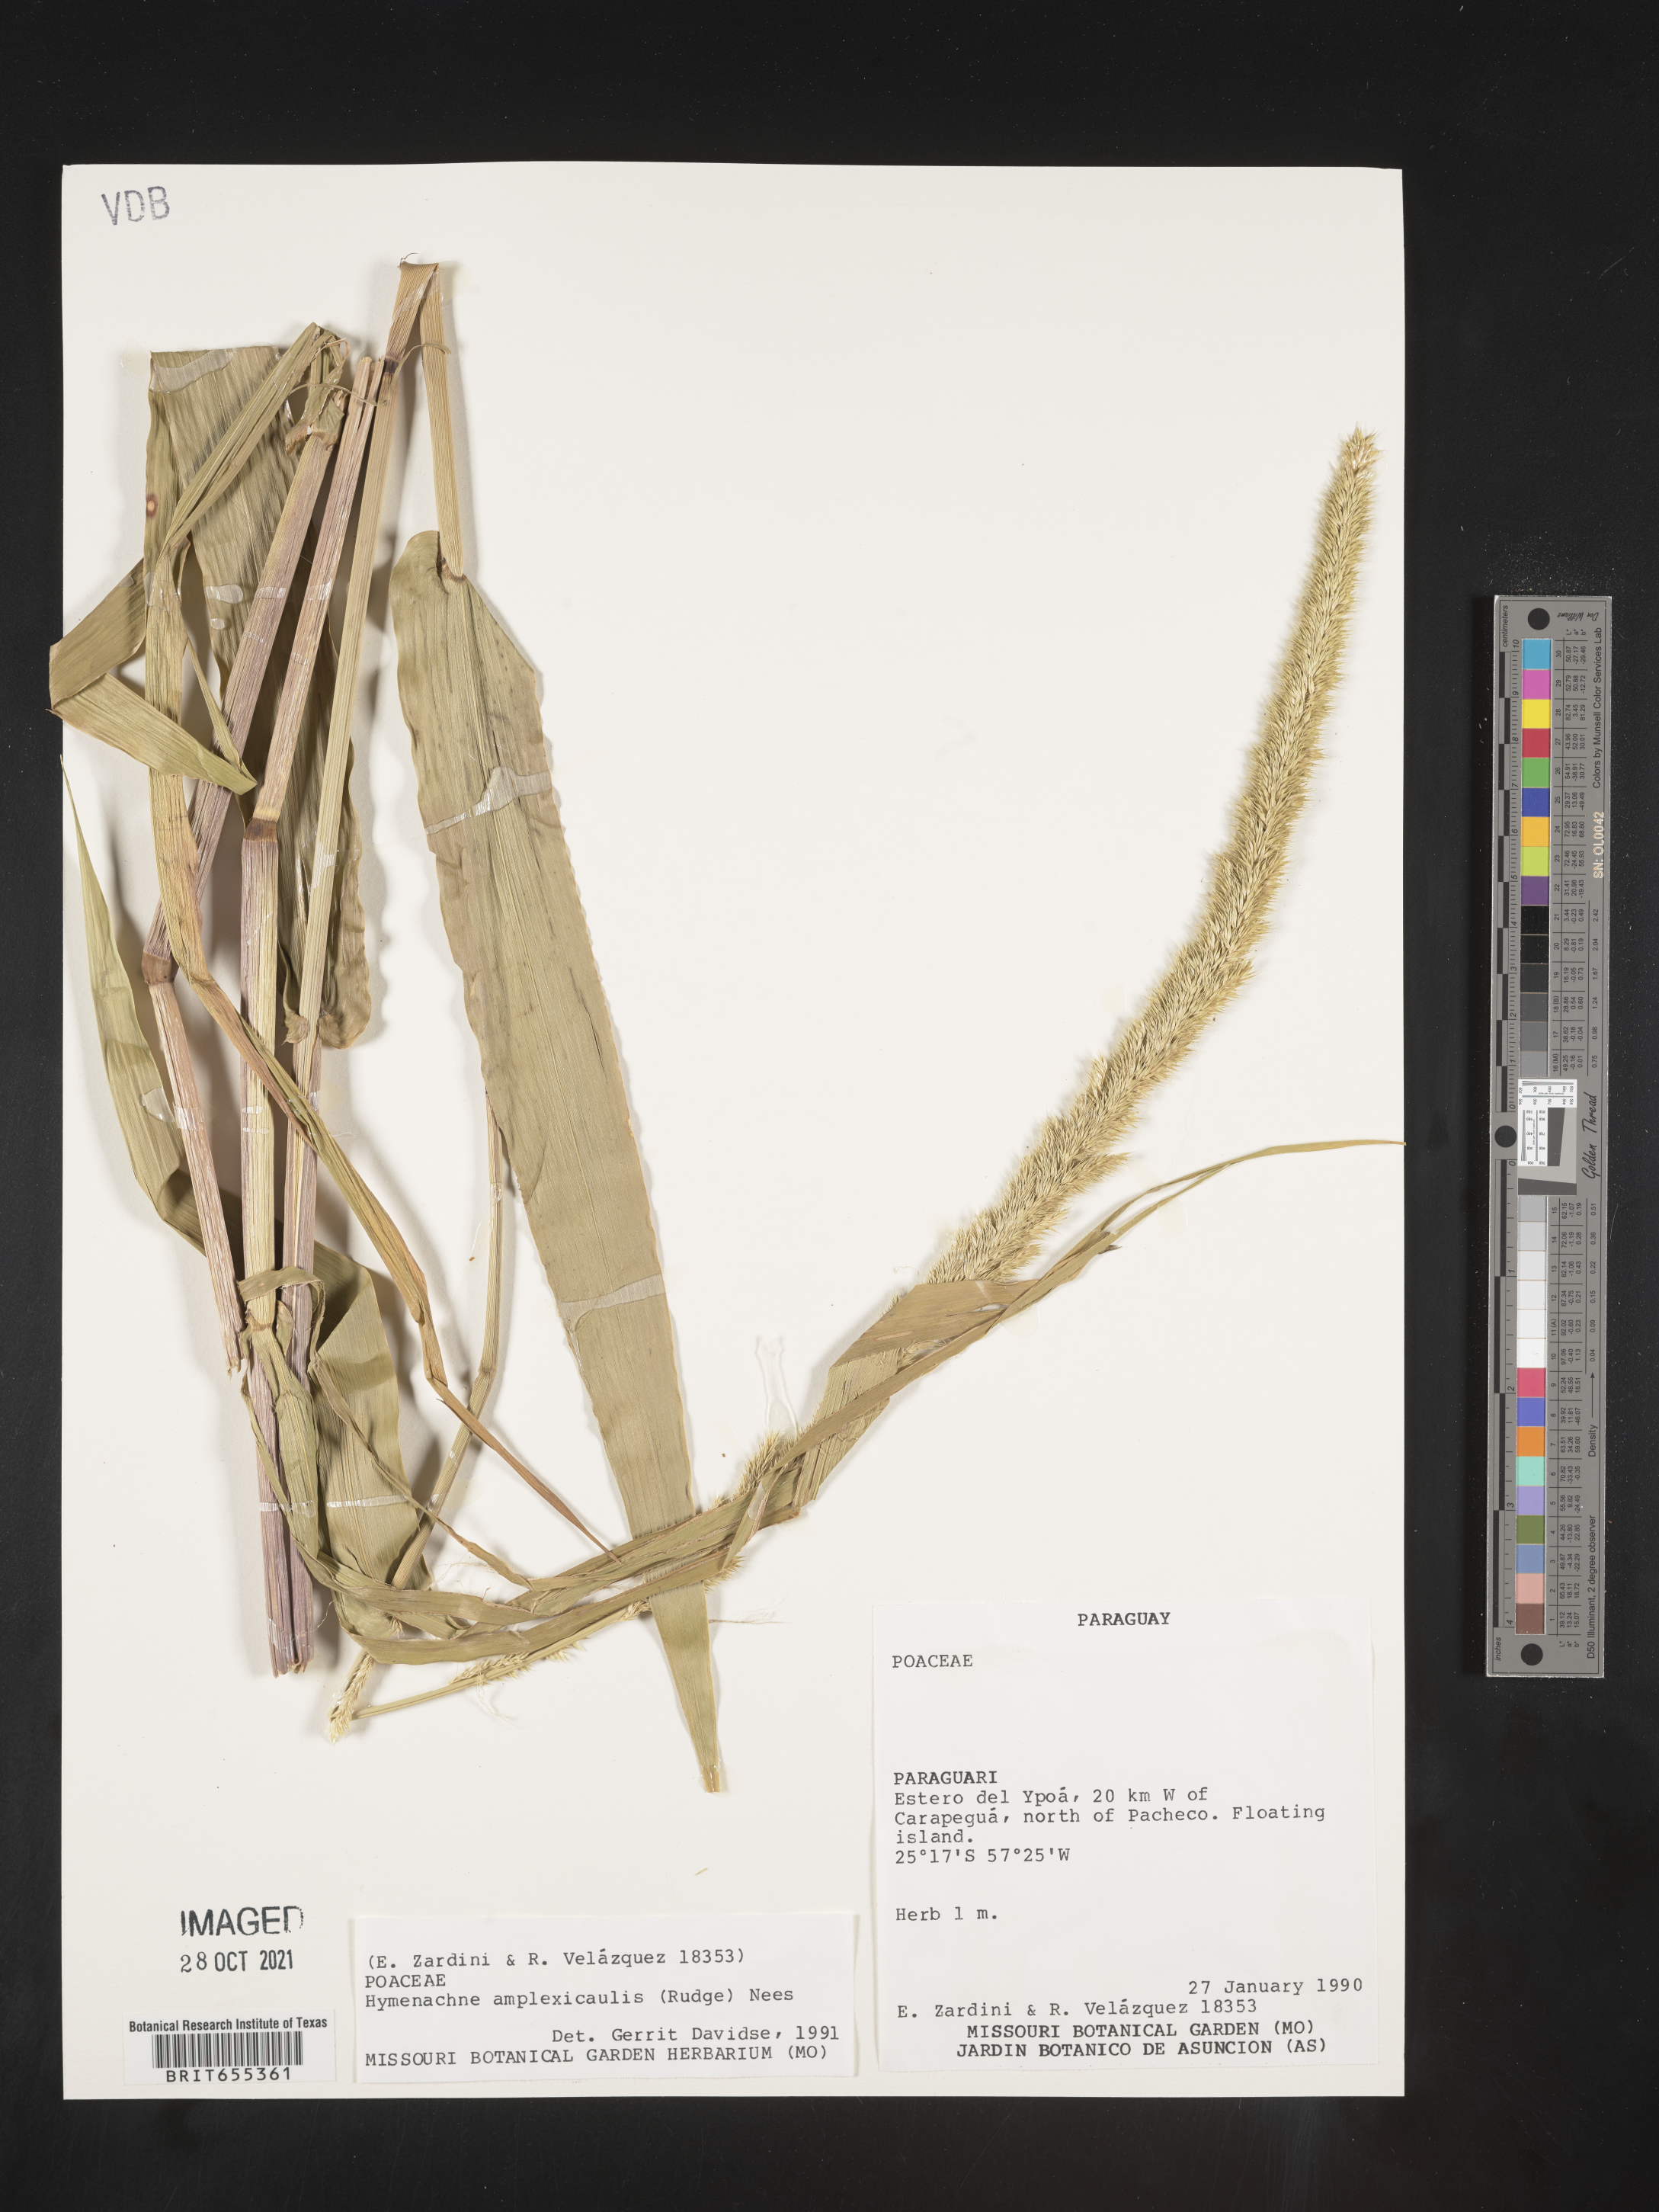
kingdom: Plantae
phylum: Tracheophyta
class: Liliopsida
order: Poales
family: Poaceae
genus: Hymenachne
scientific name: Hymenachne
